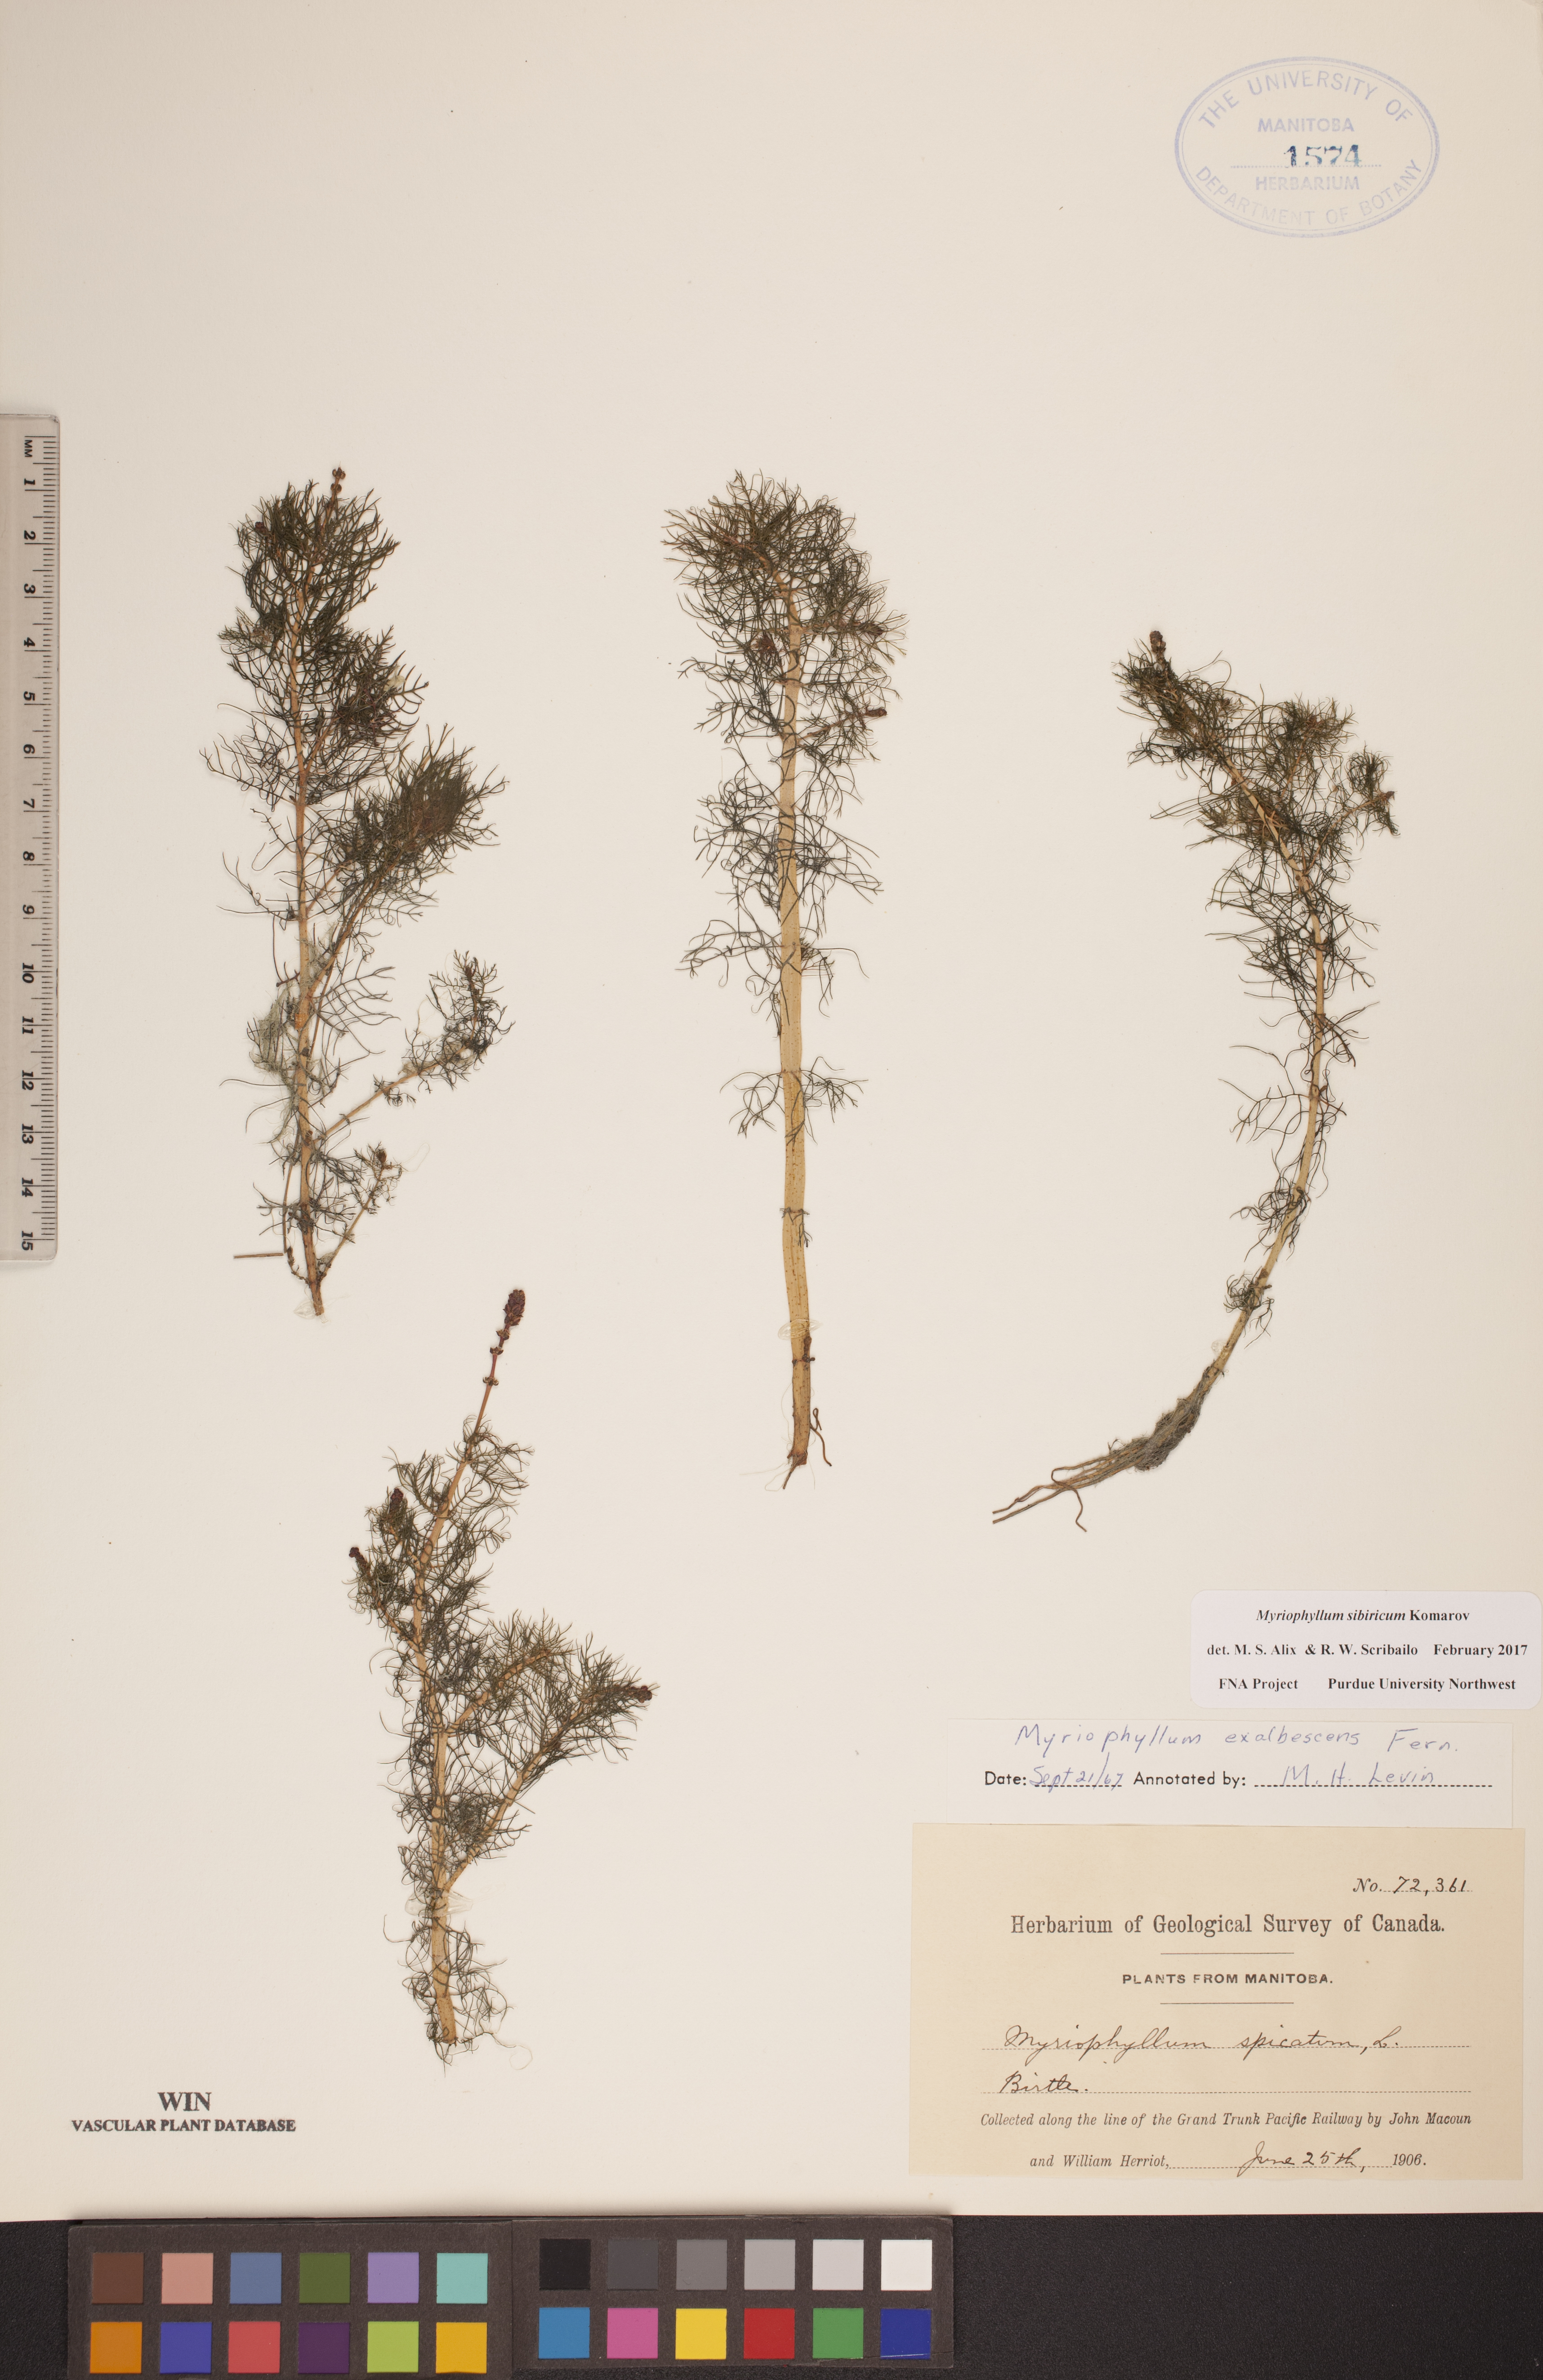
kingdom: Plantae
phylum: Tracheophyta
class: Magnoliopsida
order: Saxifragales
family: Haloragaceae
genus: Myriophyllum
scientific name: Myriophyllum sibiricum
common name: Siberian water-milfoil
